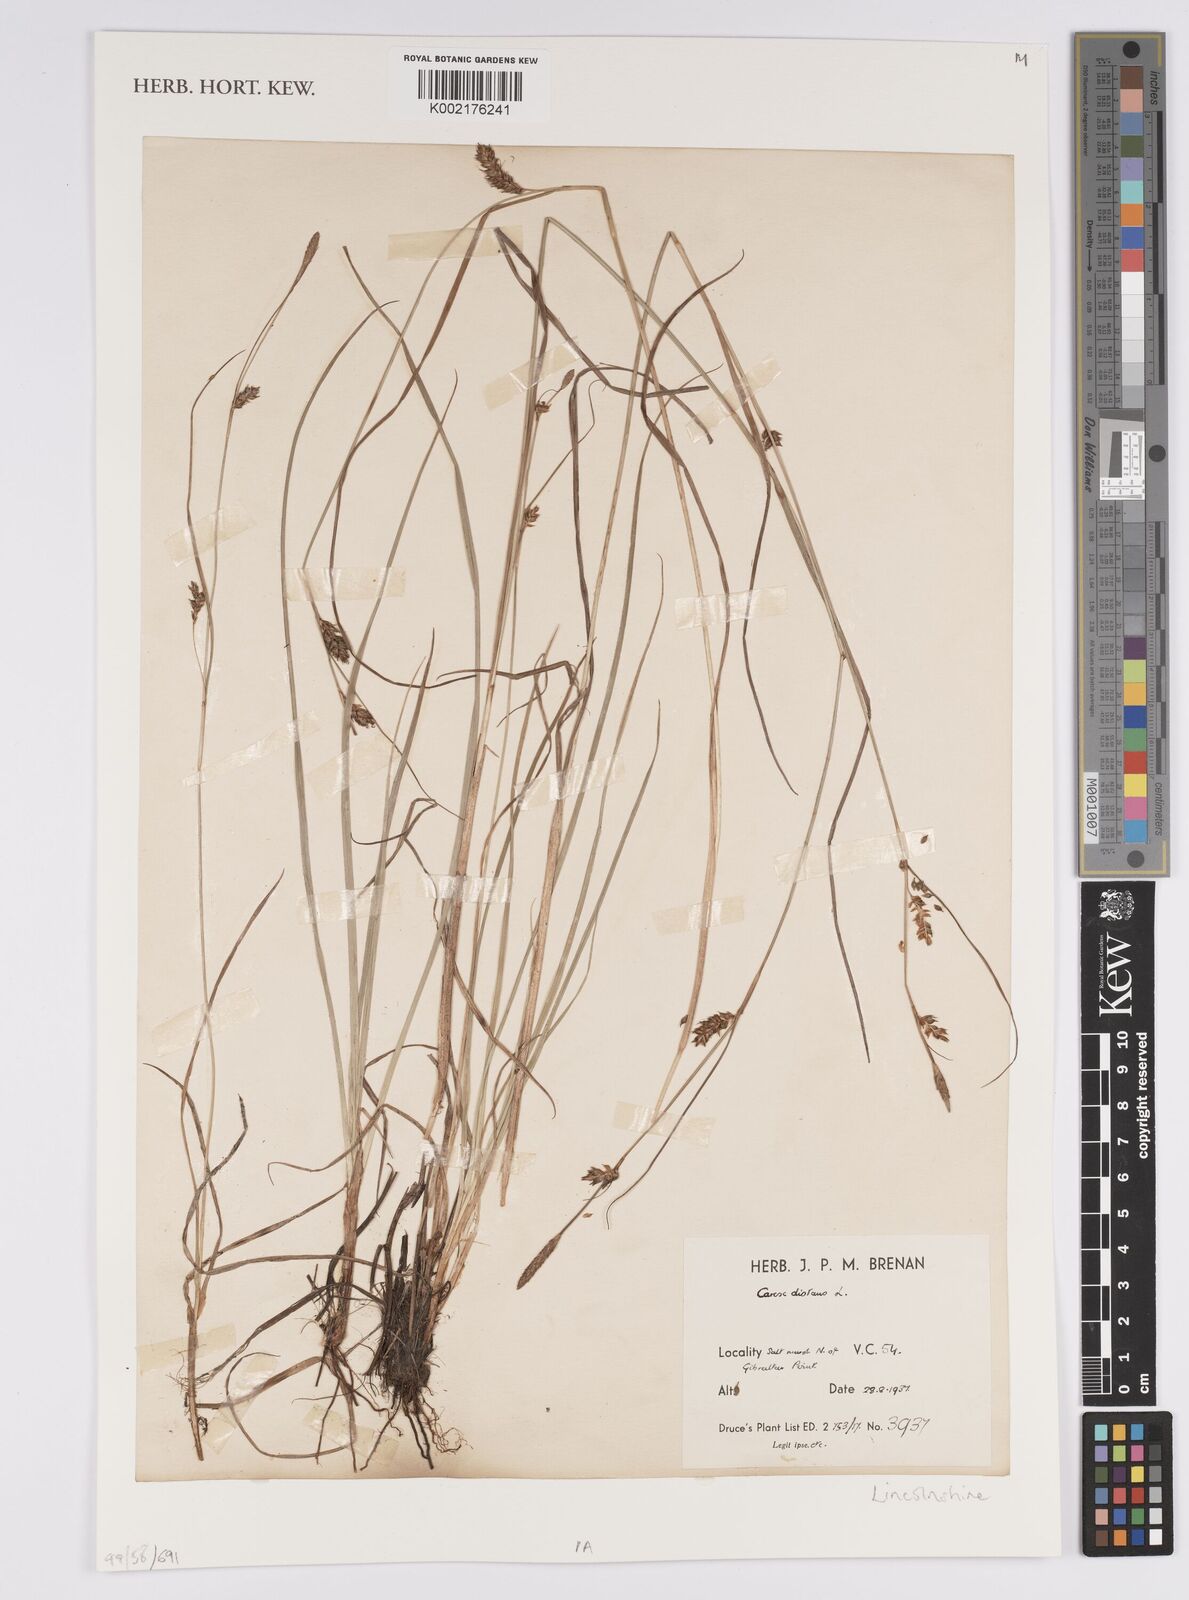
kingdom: Plantae
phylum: Tracheophyta
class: Liliopsida
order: Poales
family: Cyperaceae
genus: Carex
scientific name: Carex distans
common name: Distant sedge
